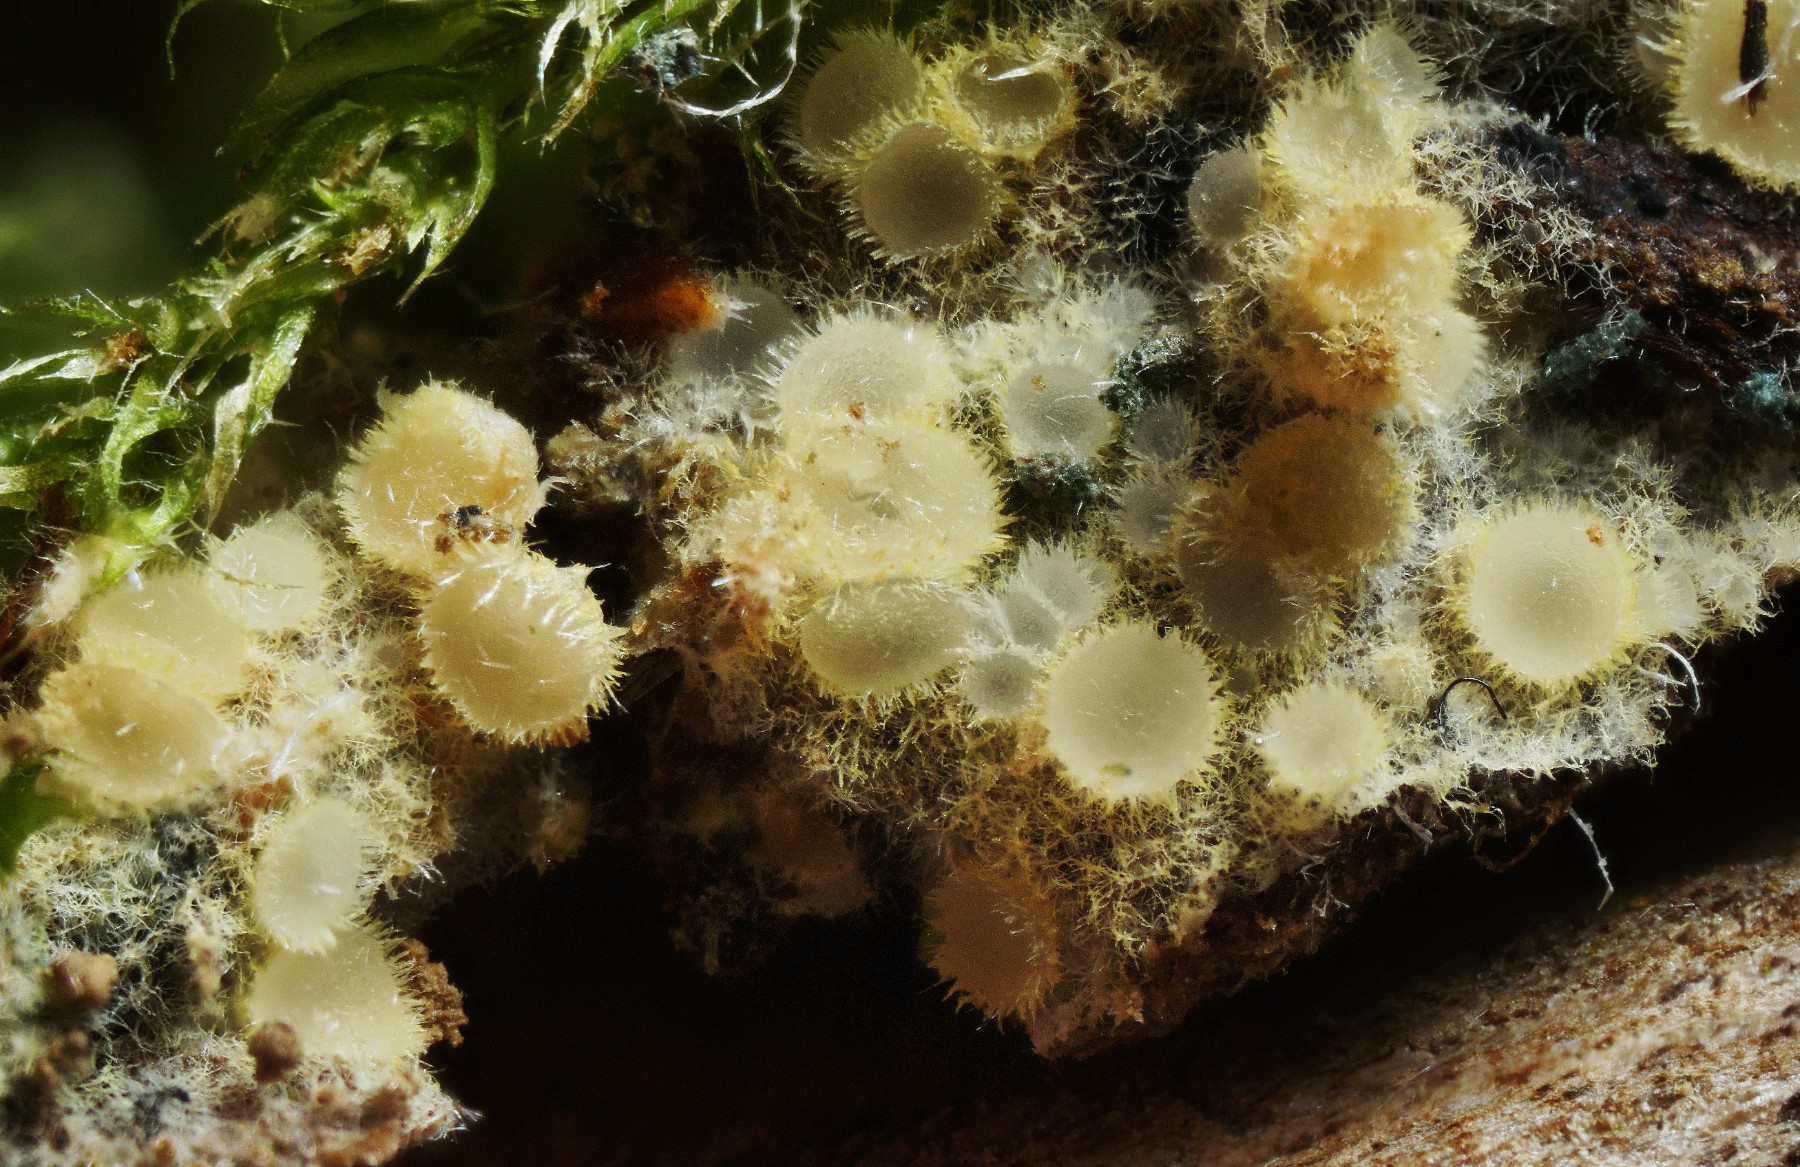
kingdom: Fungi
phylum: Ascomycota
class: Leotiomycetes
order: Helotiales
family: Arachnopezizaceae
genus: Arachnopeziza
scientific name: Arachnopeziza aurata
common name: bleggul spindskive
